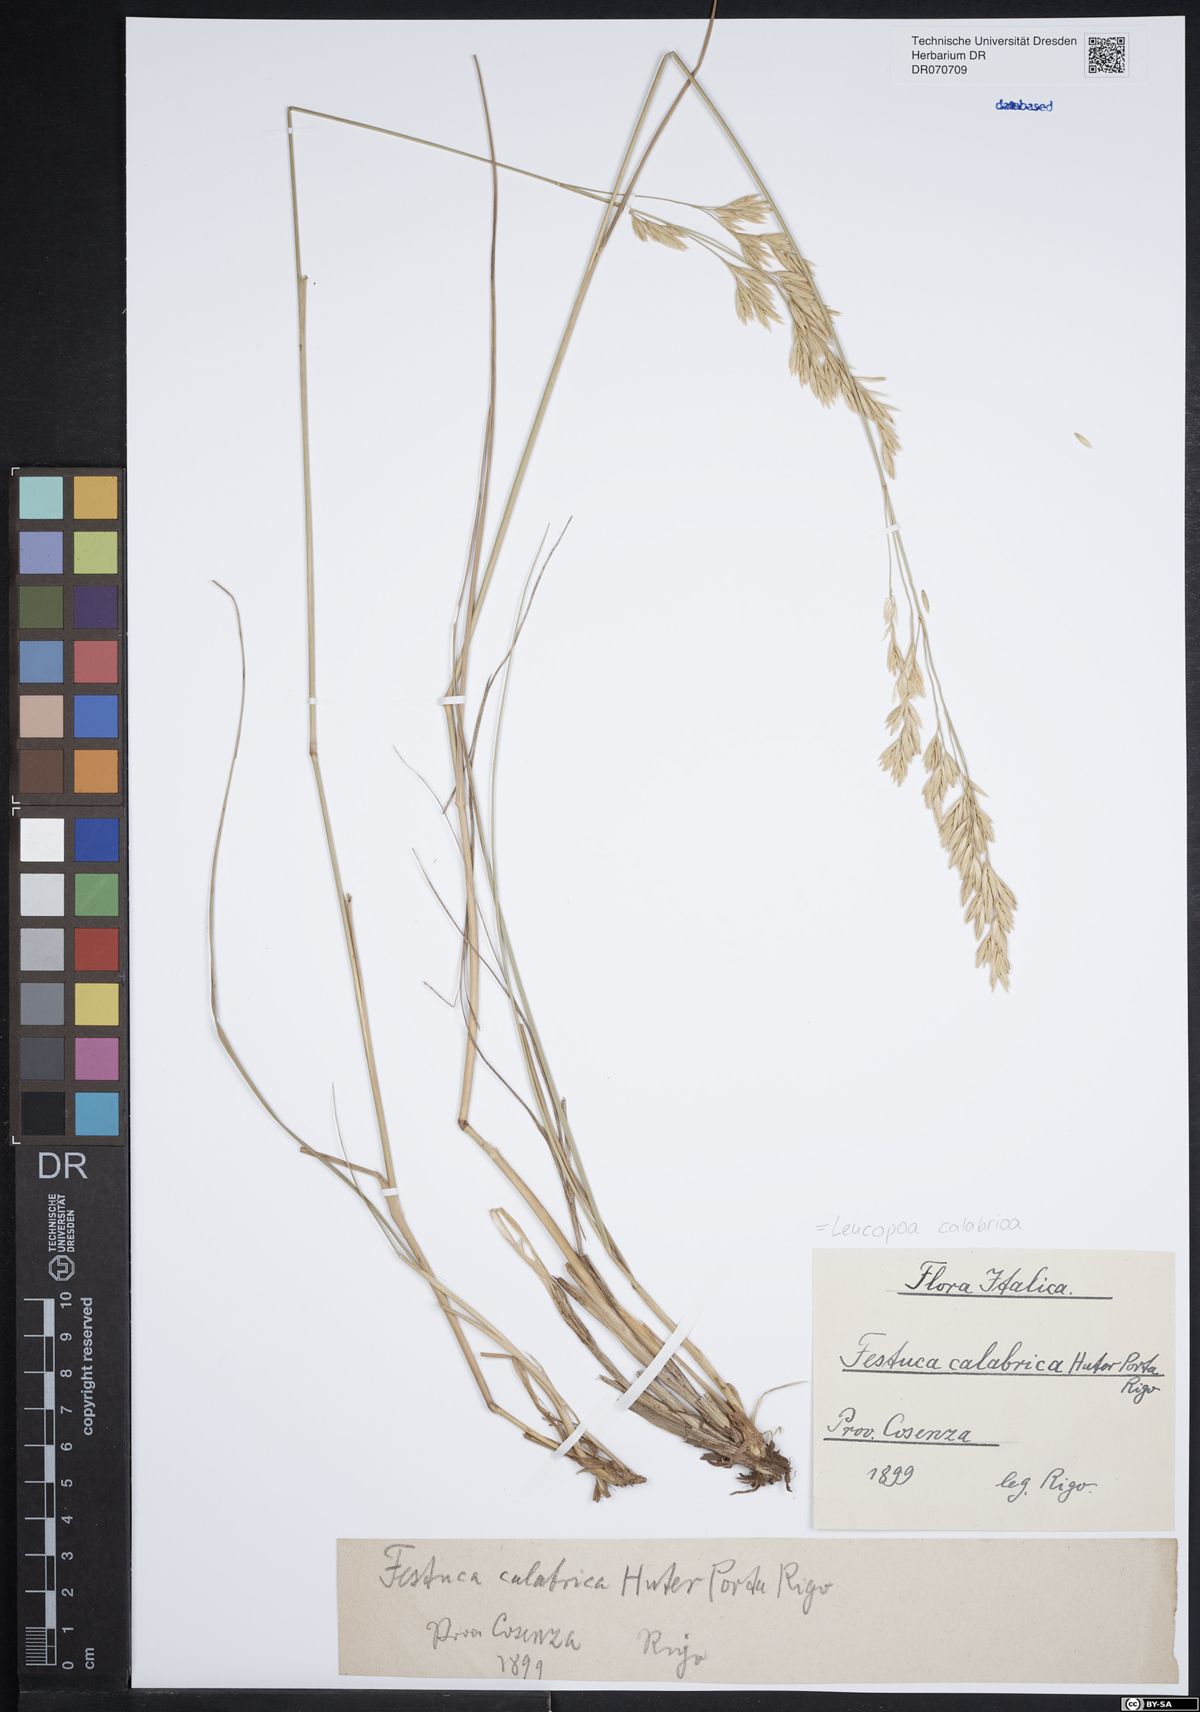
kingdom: Plantae
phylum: Tracheophyta
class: Liliopsida
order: Poales
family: Poaceae
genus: Festuca
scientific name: Festuca calabrica
